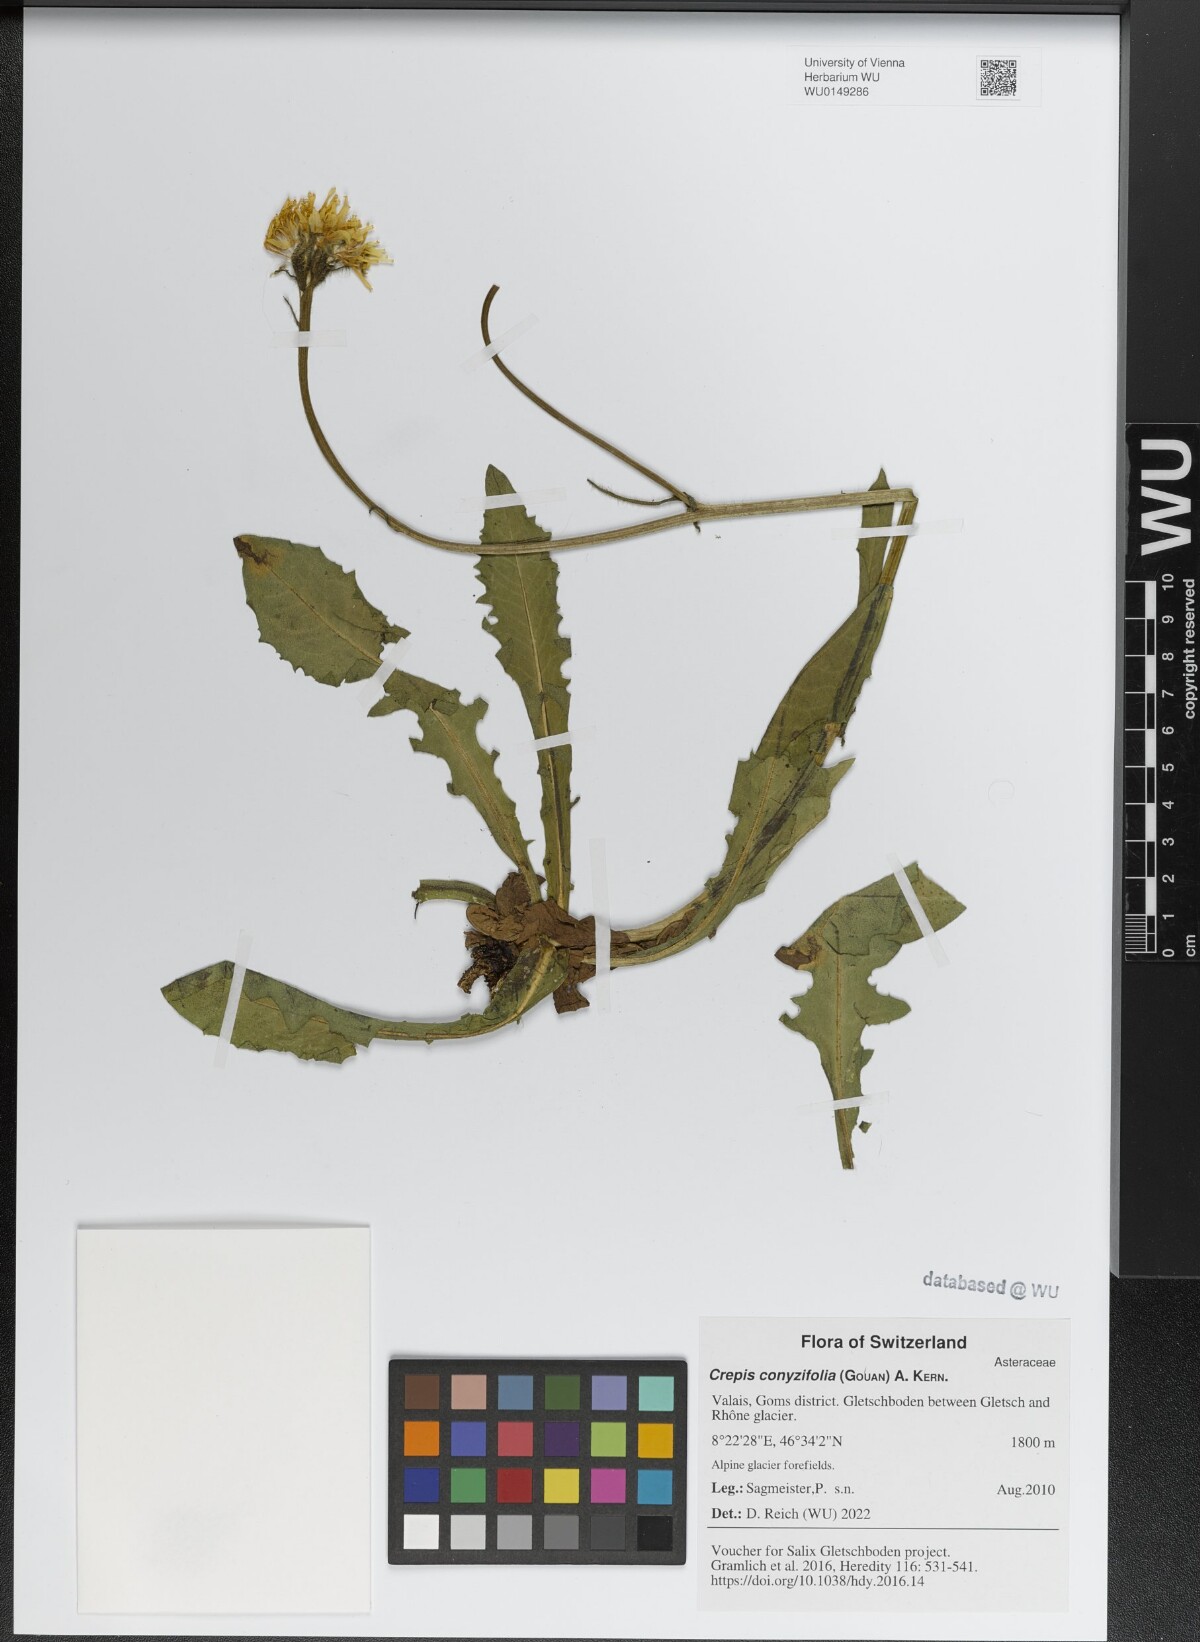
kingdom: Plantae
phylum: Tracheophyta
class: Magnoliopsida
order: Asterales
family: Asteraceae
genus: Crepis
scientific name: Crepis blattarioides
